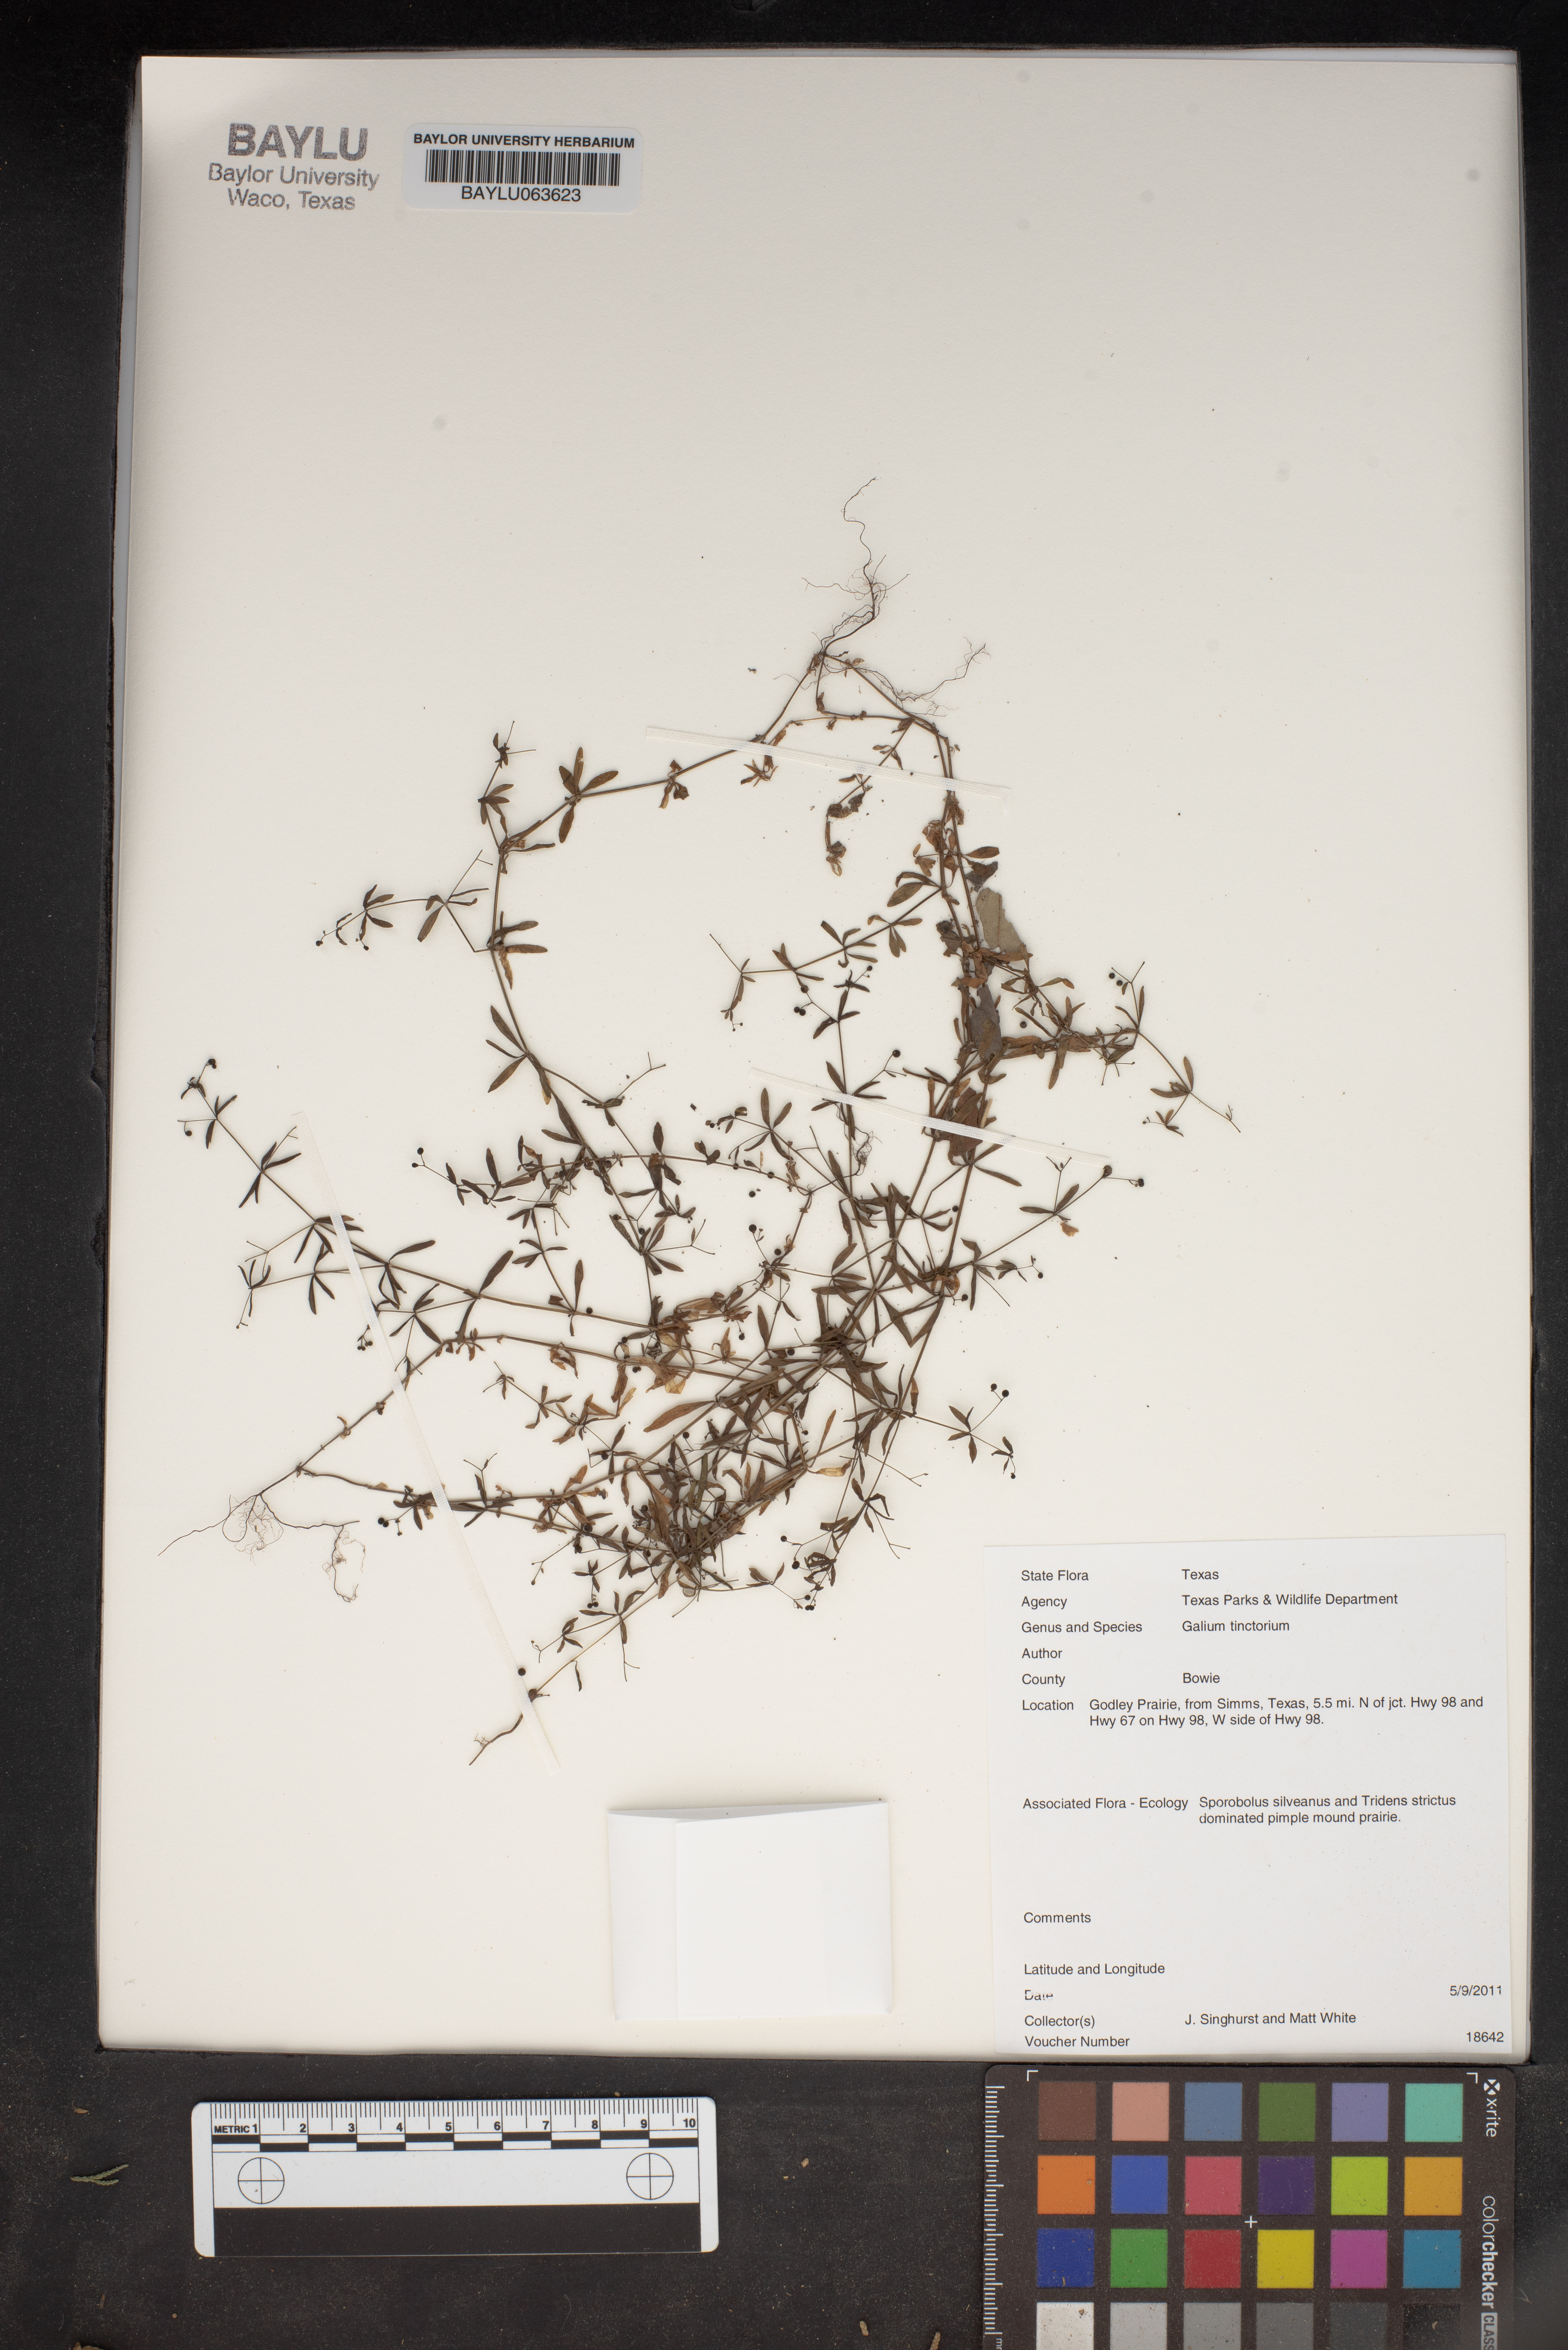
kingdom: Plantae
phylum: Tracheophyta
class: Magnoliopsida
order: Gentianales
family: Rubiaceae
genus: Asperula
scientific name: Asperula tinctoria
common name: Dyer's woodruff
